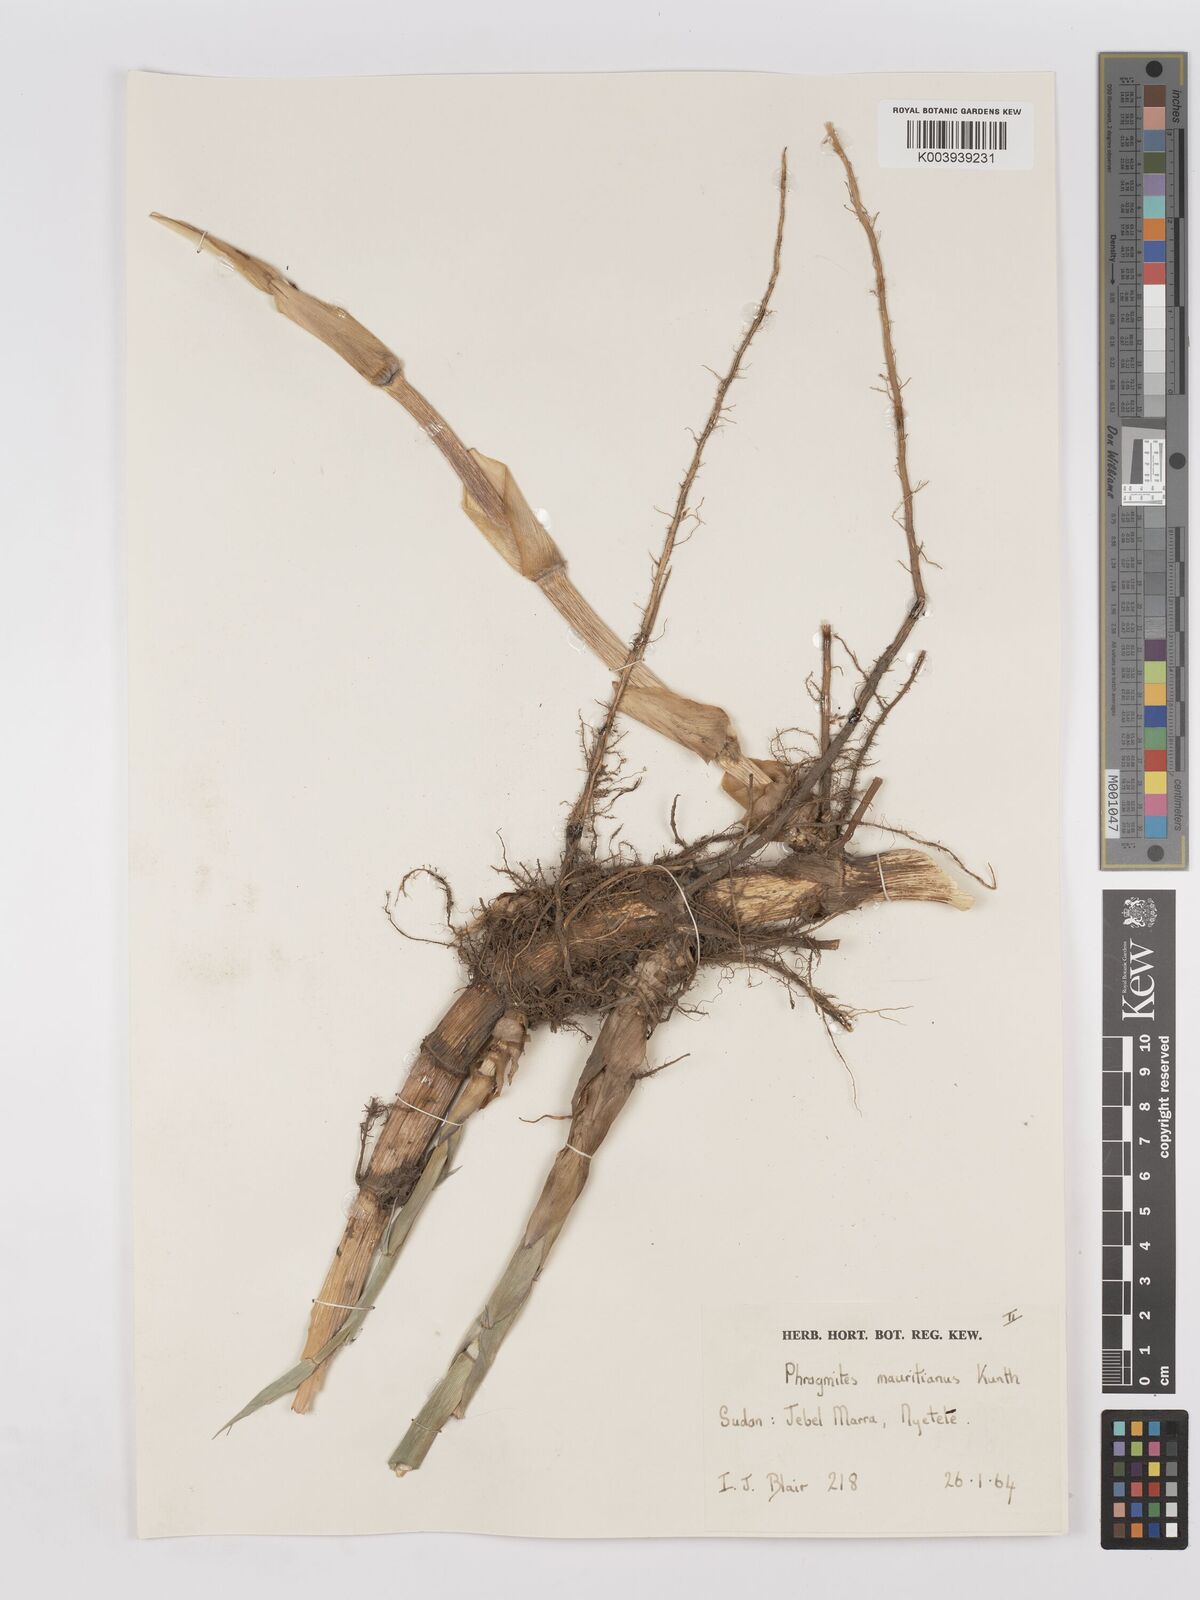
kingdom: Plantae
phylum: Tracheophyta
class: Liliopsida
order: Poales
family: Poaceae
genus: Phragmites
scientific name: Phragmites karka
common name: Tropical reed
